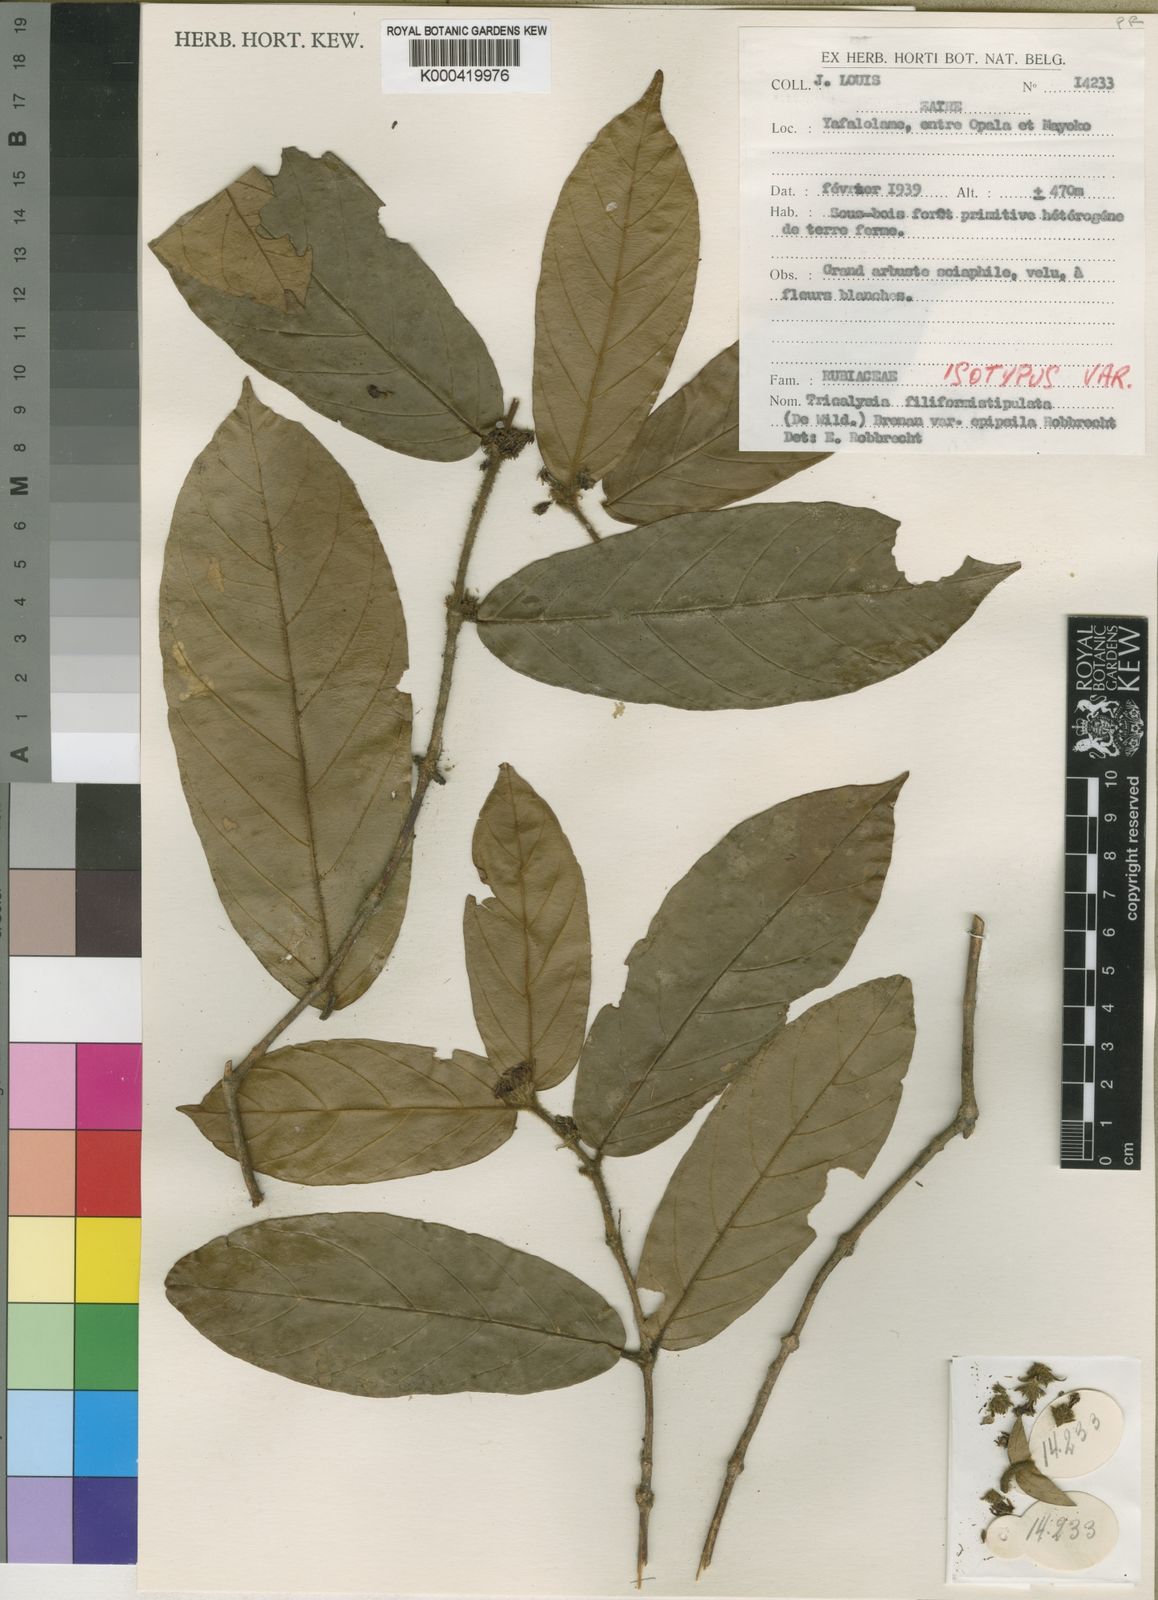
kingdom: Plantae
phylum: Tracheophyta
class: Magnoliopsida
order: Gentianales
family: Rubiaceae
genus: Empogona
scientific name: Empogona filiformistipulata
